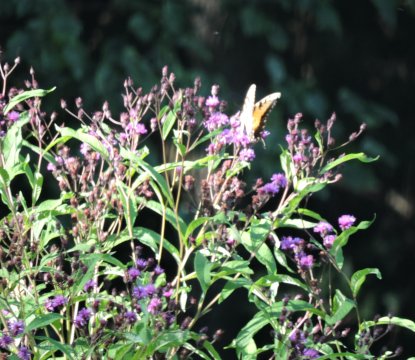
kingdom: Animalia
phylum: Arthropoda
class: Insecta
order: Lepidoptera
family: Papilionidae
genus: Pterourus
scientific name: Pterourus glaucus
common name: Eastern Tiger Swallowtail
